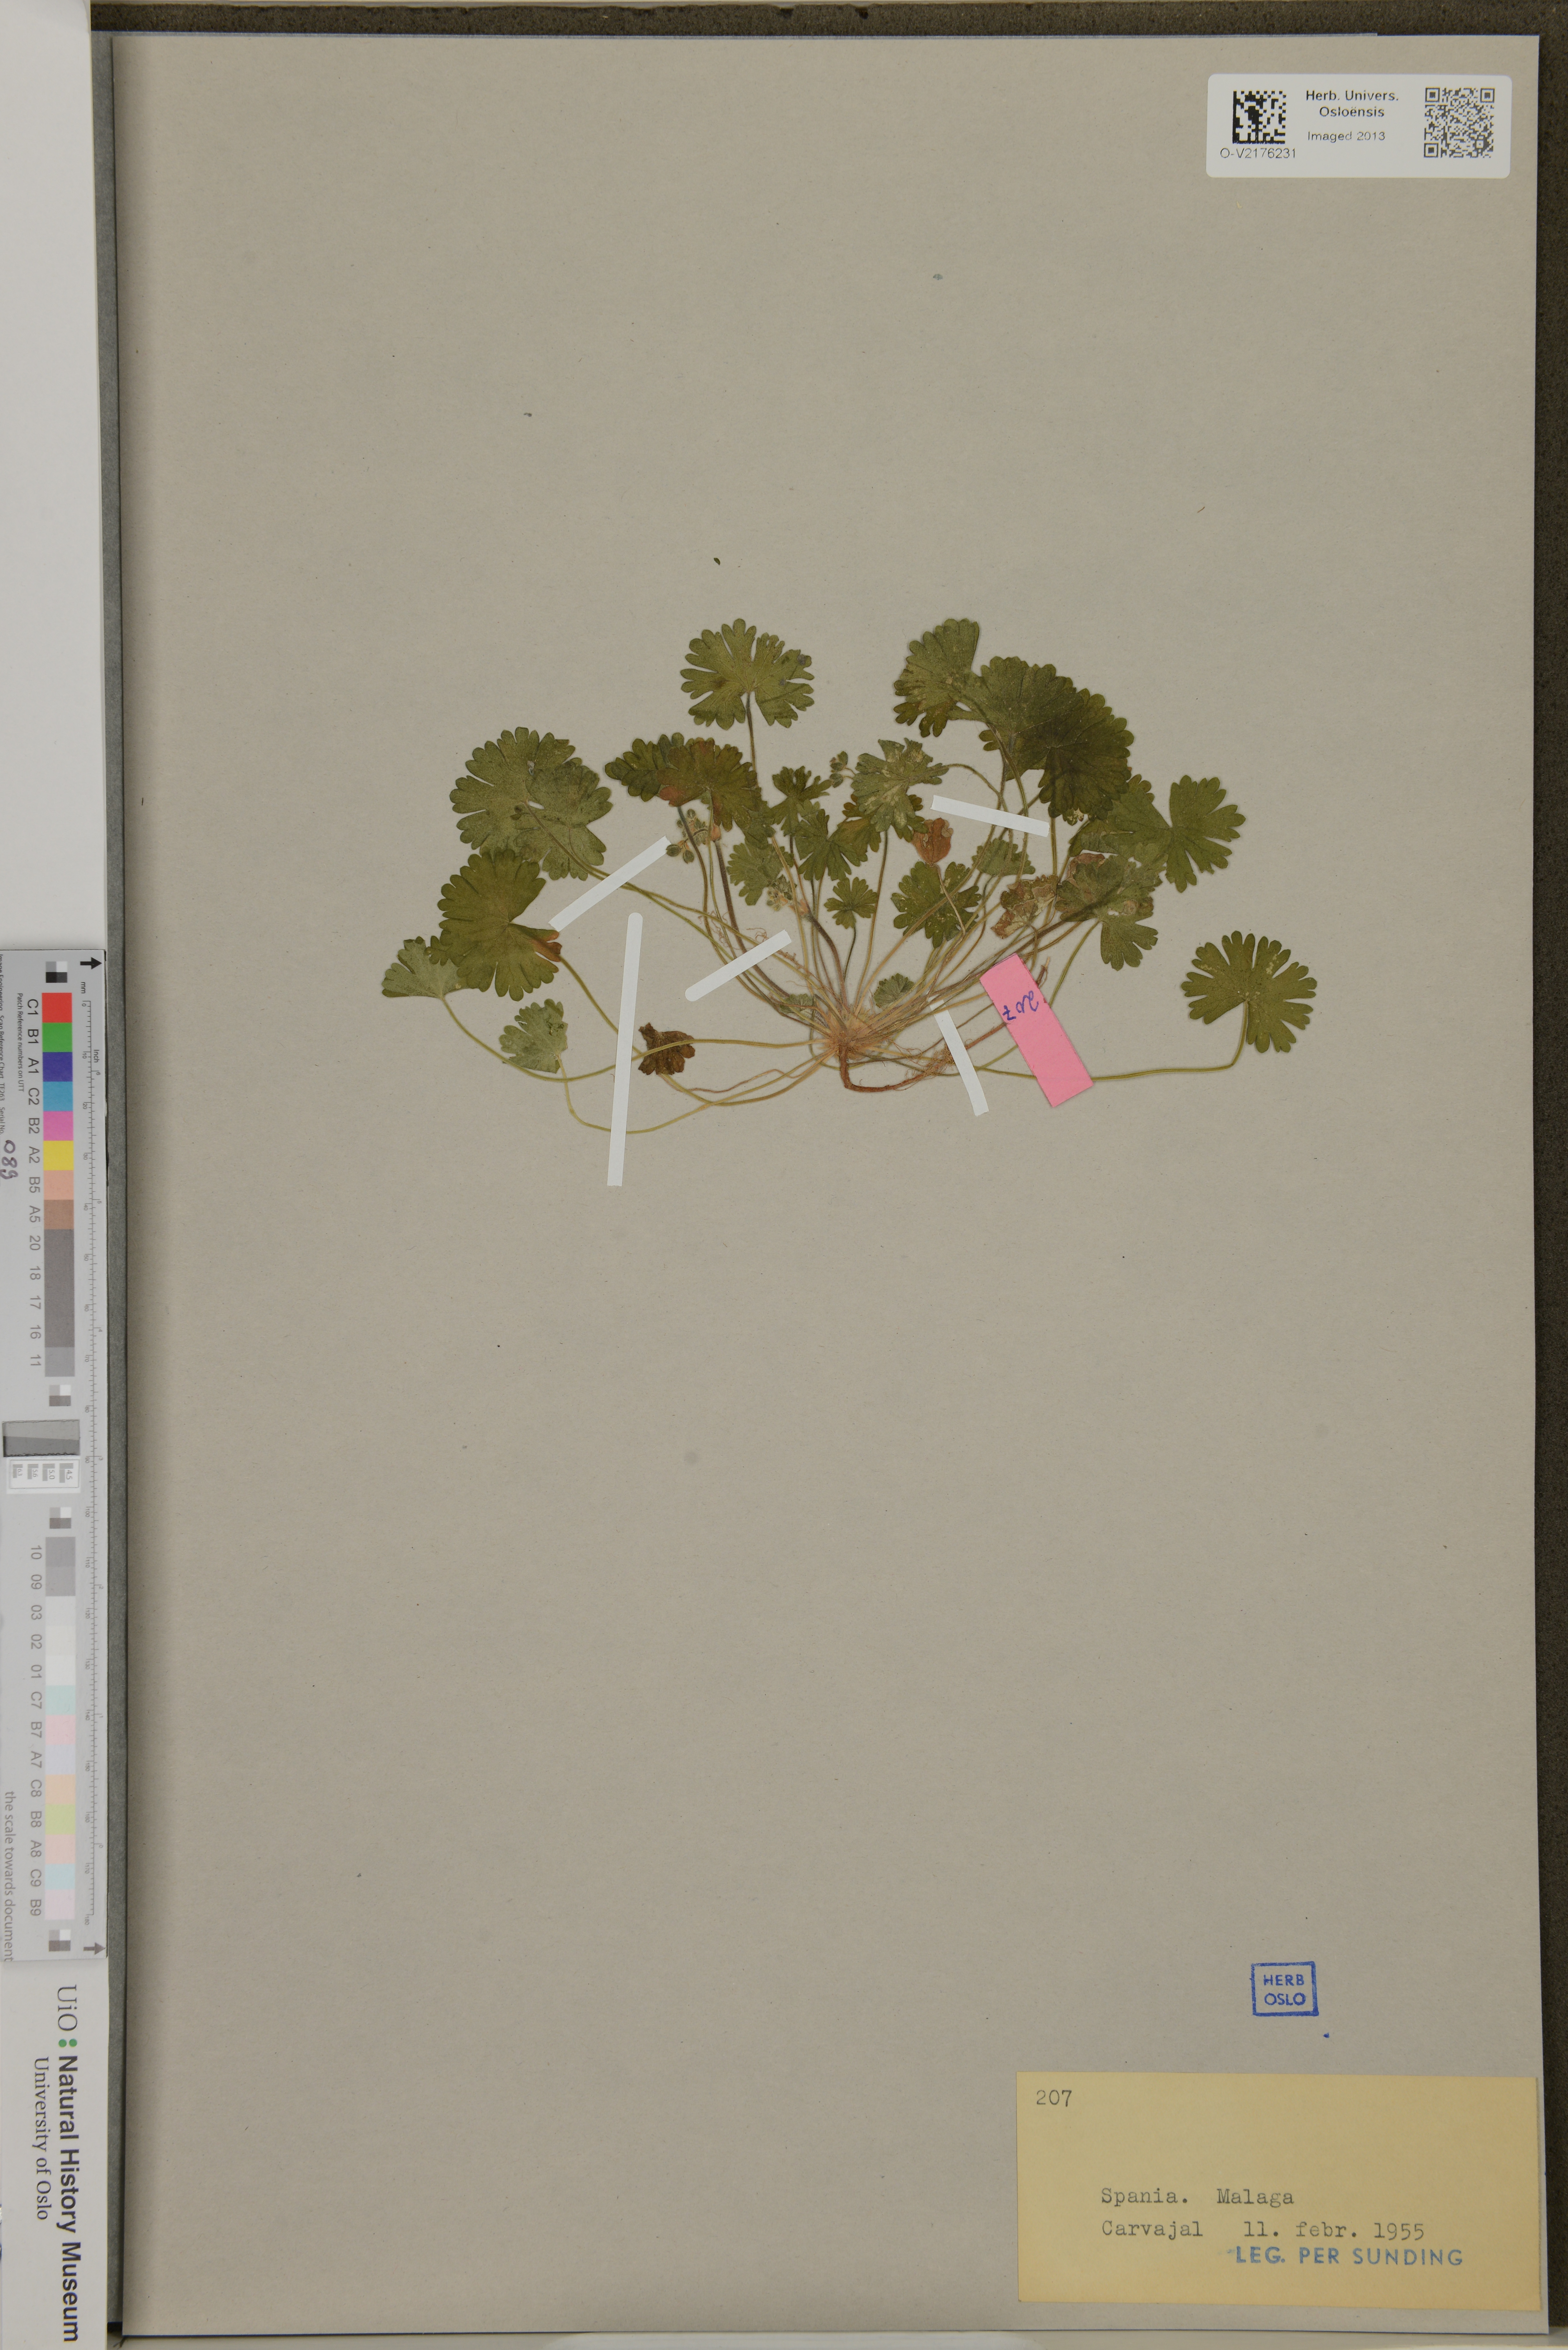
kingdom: Plantae
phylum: Tracheophyta
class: Magnoliopsida
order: Geraniales
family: Geraniaceae
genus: Geranium
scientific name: Geranium
